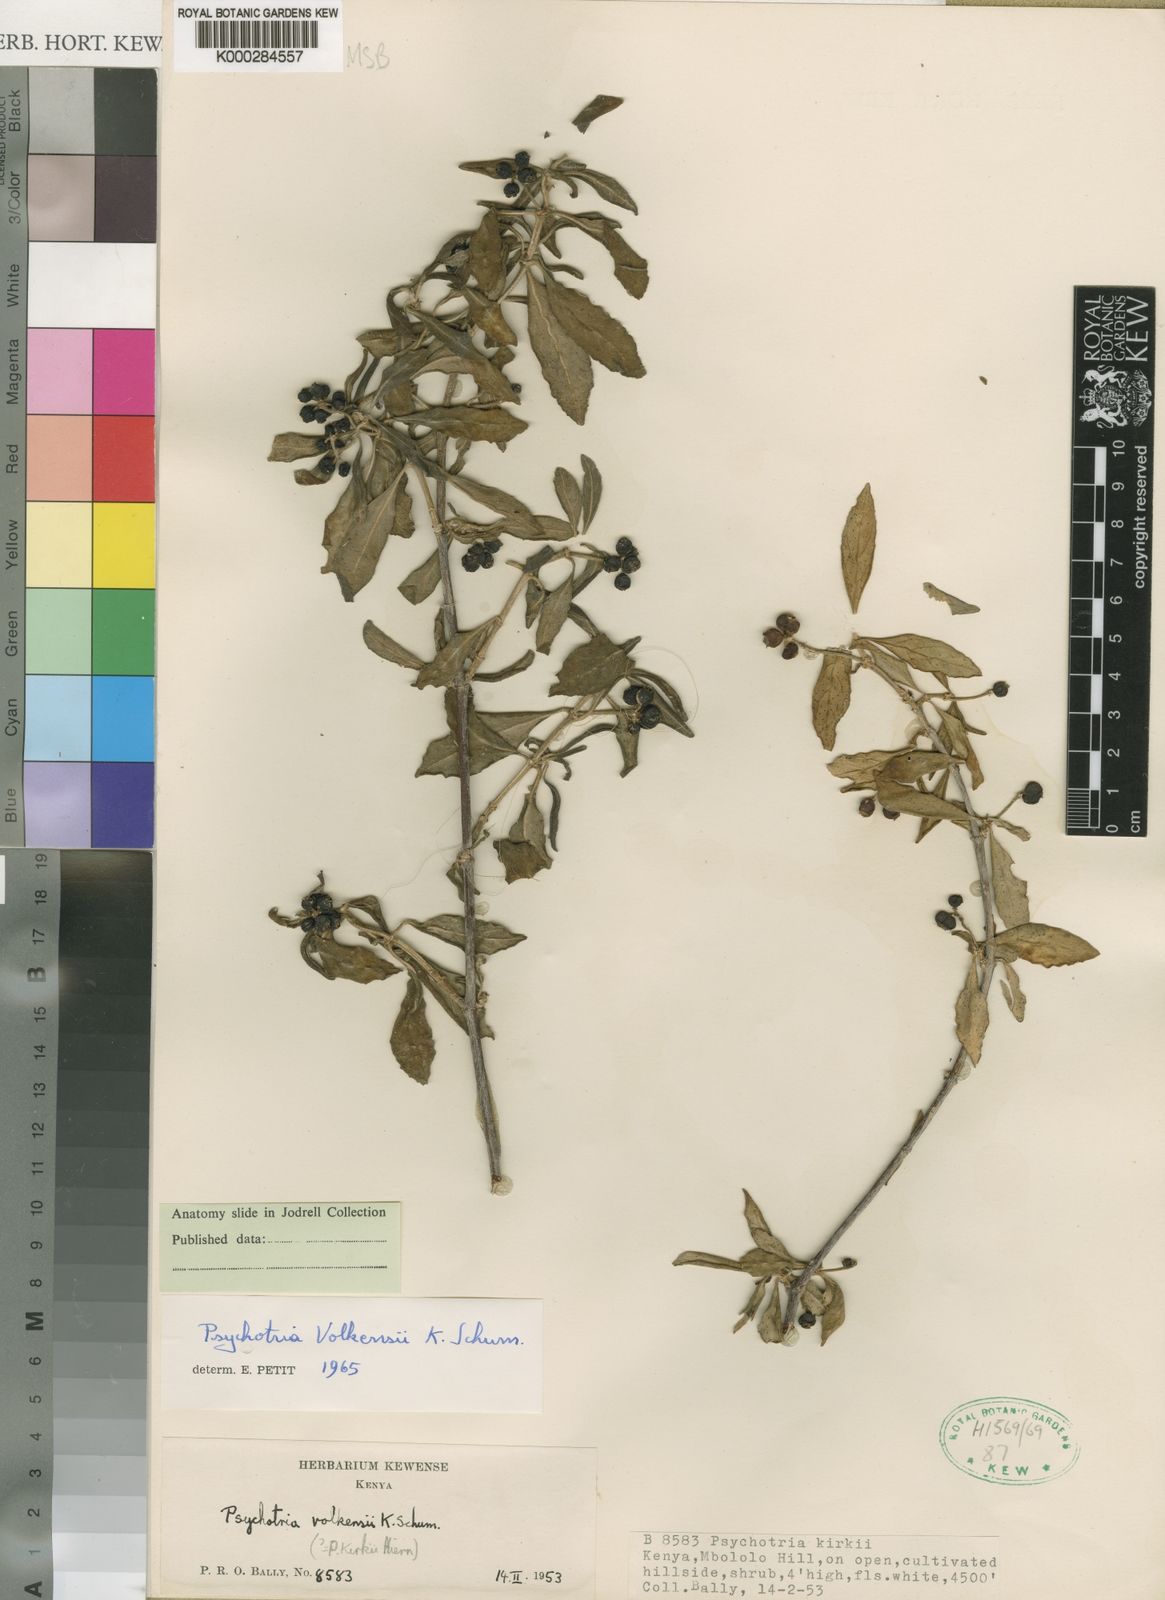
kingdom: Plantae
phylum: Tracheophyta
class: Magnoliopsida
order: Gentianales
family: Rubiaceae
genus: Psychotria
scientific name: Psychotria punctata
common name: Dotted wild coffee
